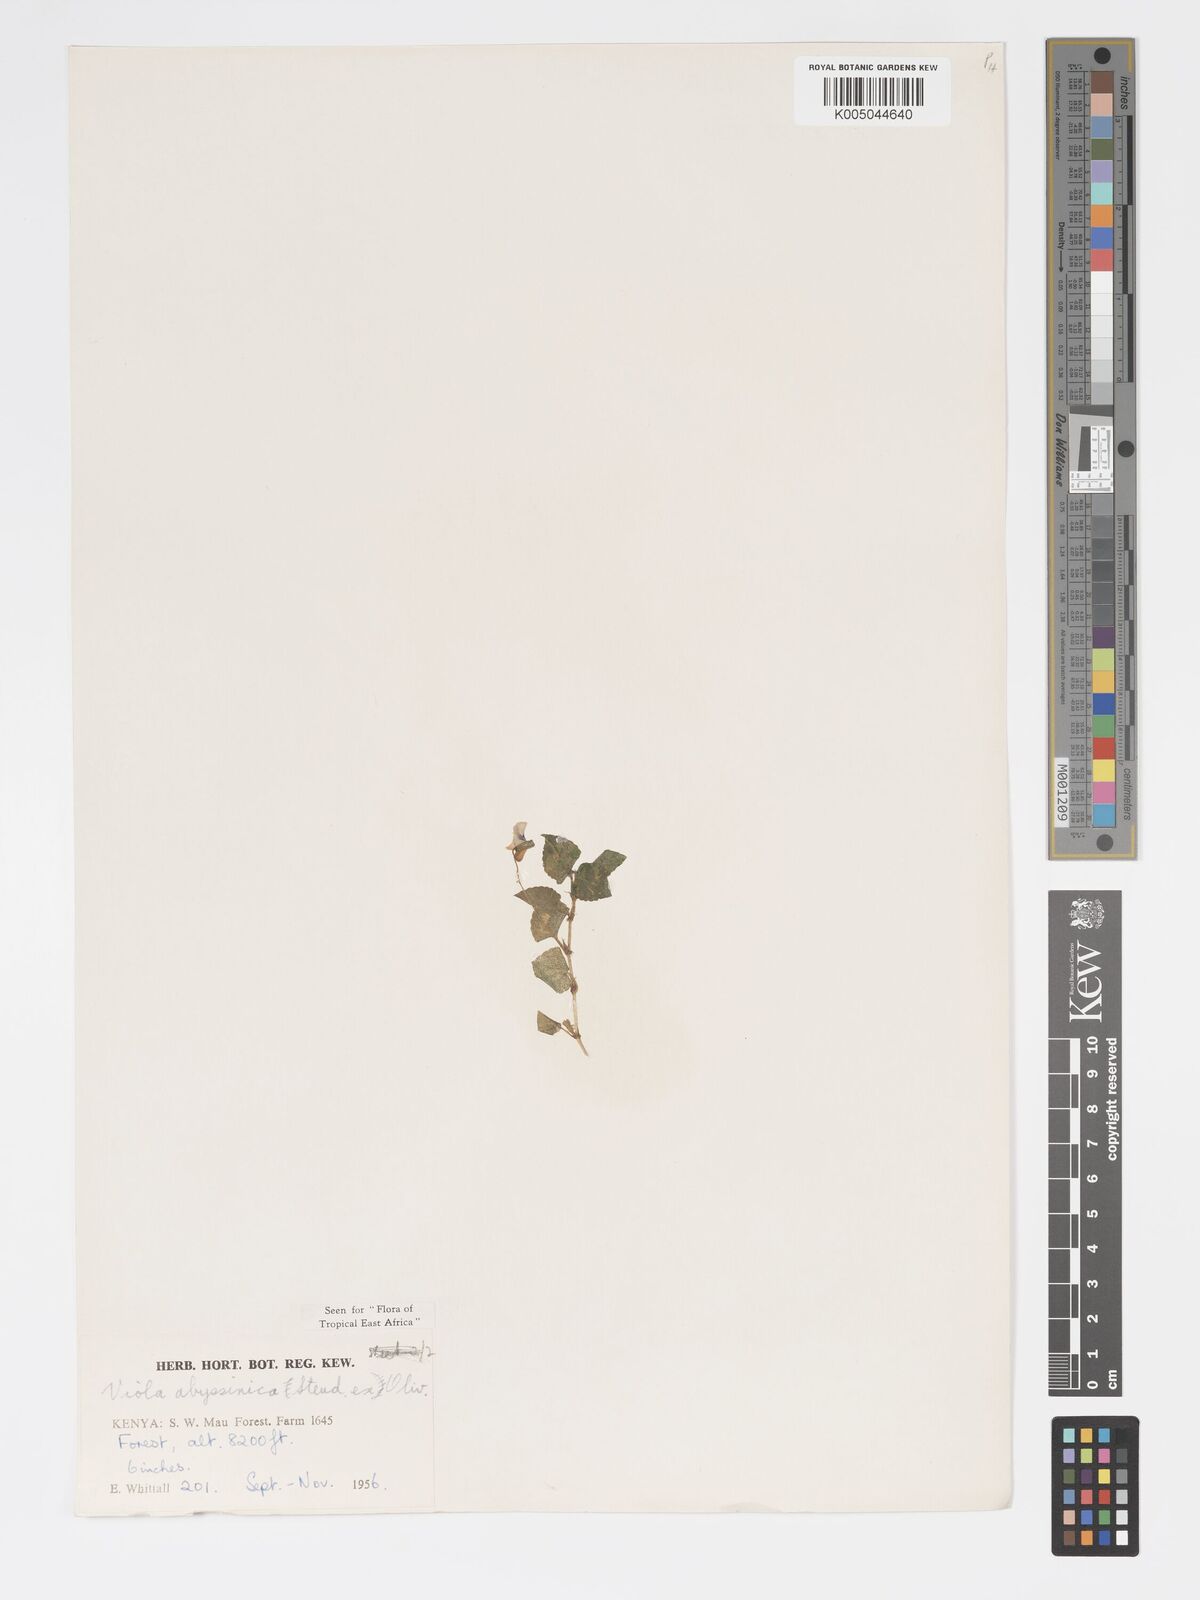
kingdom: Plantae
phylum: Tracheophyta
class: Magnoliopsida
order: Malpighiales
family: Violaceae
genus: Viola
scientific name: Viola abyssinica
